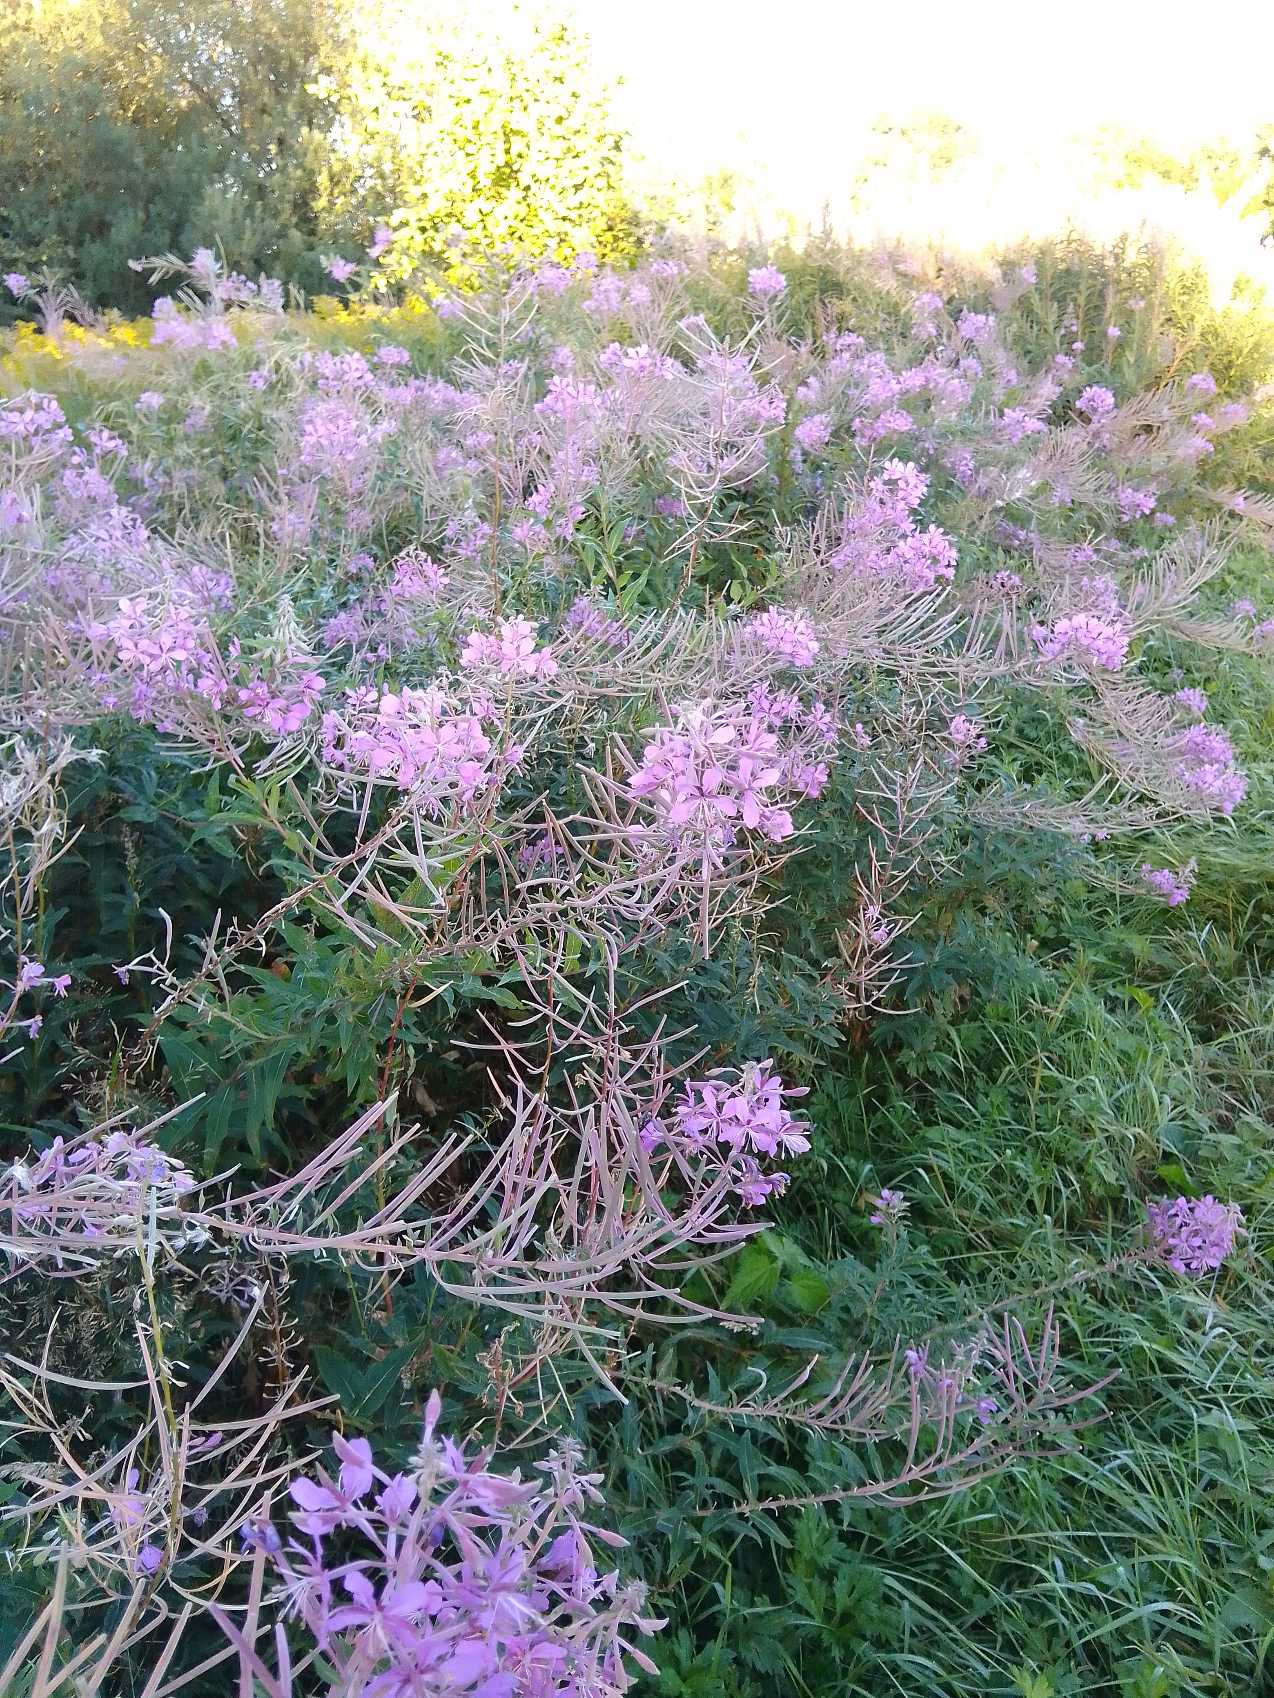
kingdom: Plantae
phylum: Tracheophyta
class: Magnoliopsida
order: Myrtales
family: Onagraceae
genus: Chamaenerion
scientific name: Chamaenerion angustifolium
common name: Gederams
